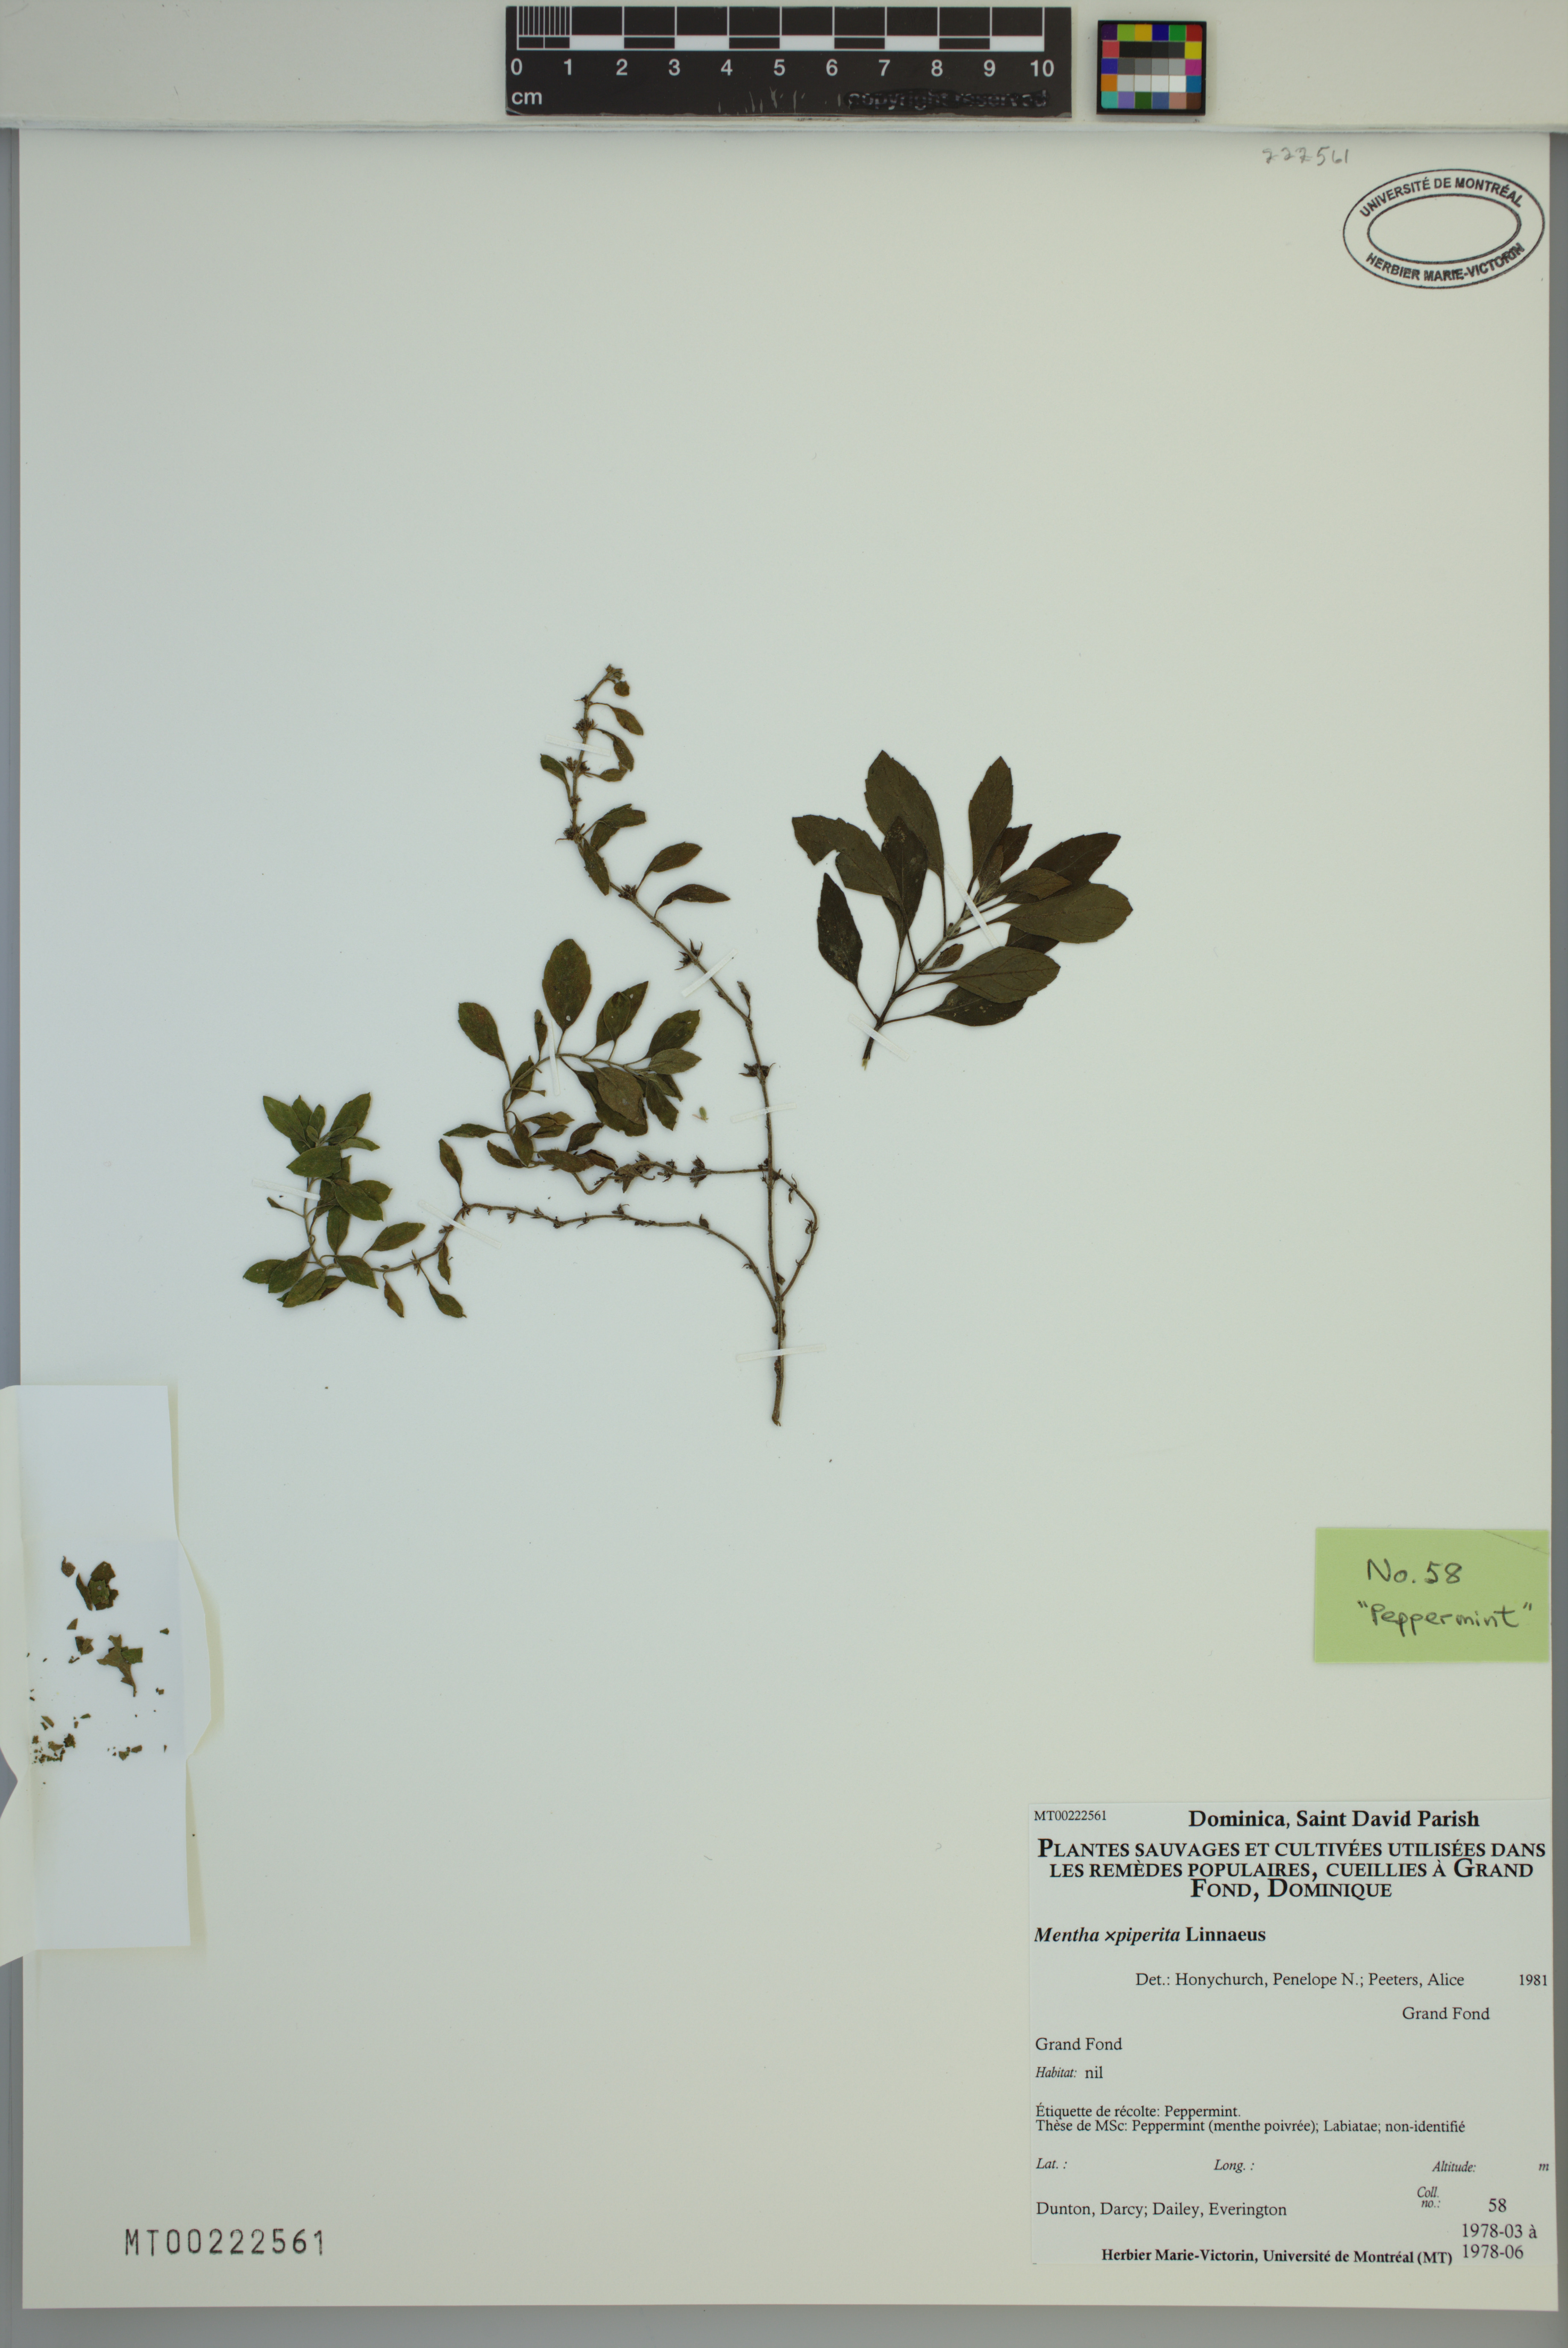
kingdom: Plantae
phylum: Tracheophyta
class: Magnoliopsida
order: Lamiales
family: Lamiaceae
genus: Mentha
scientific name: Mentha piperita
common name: Peppermint
